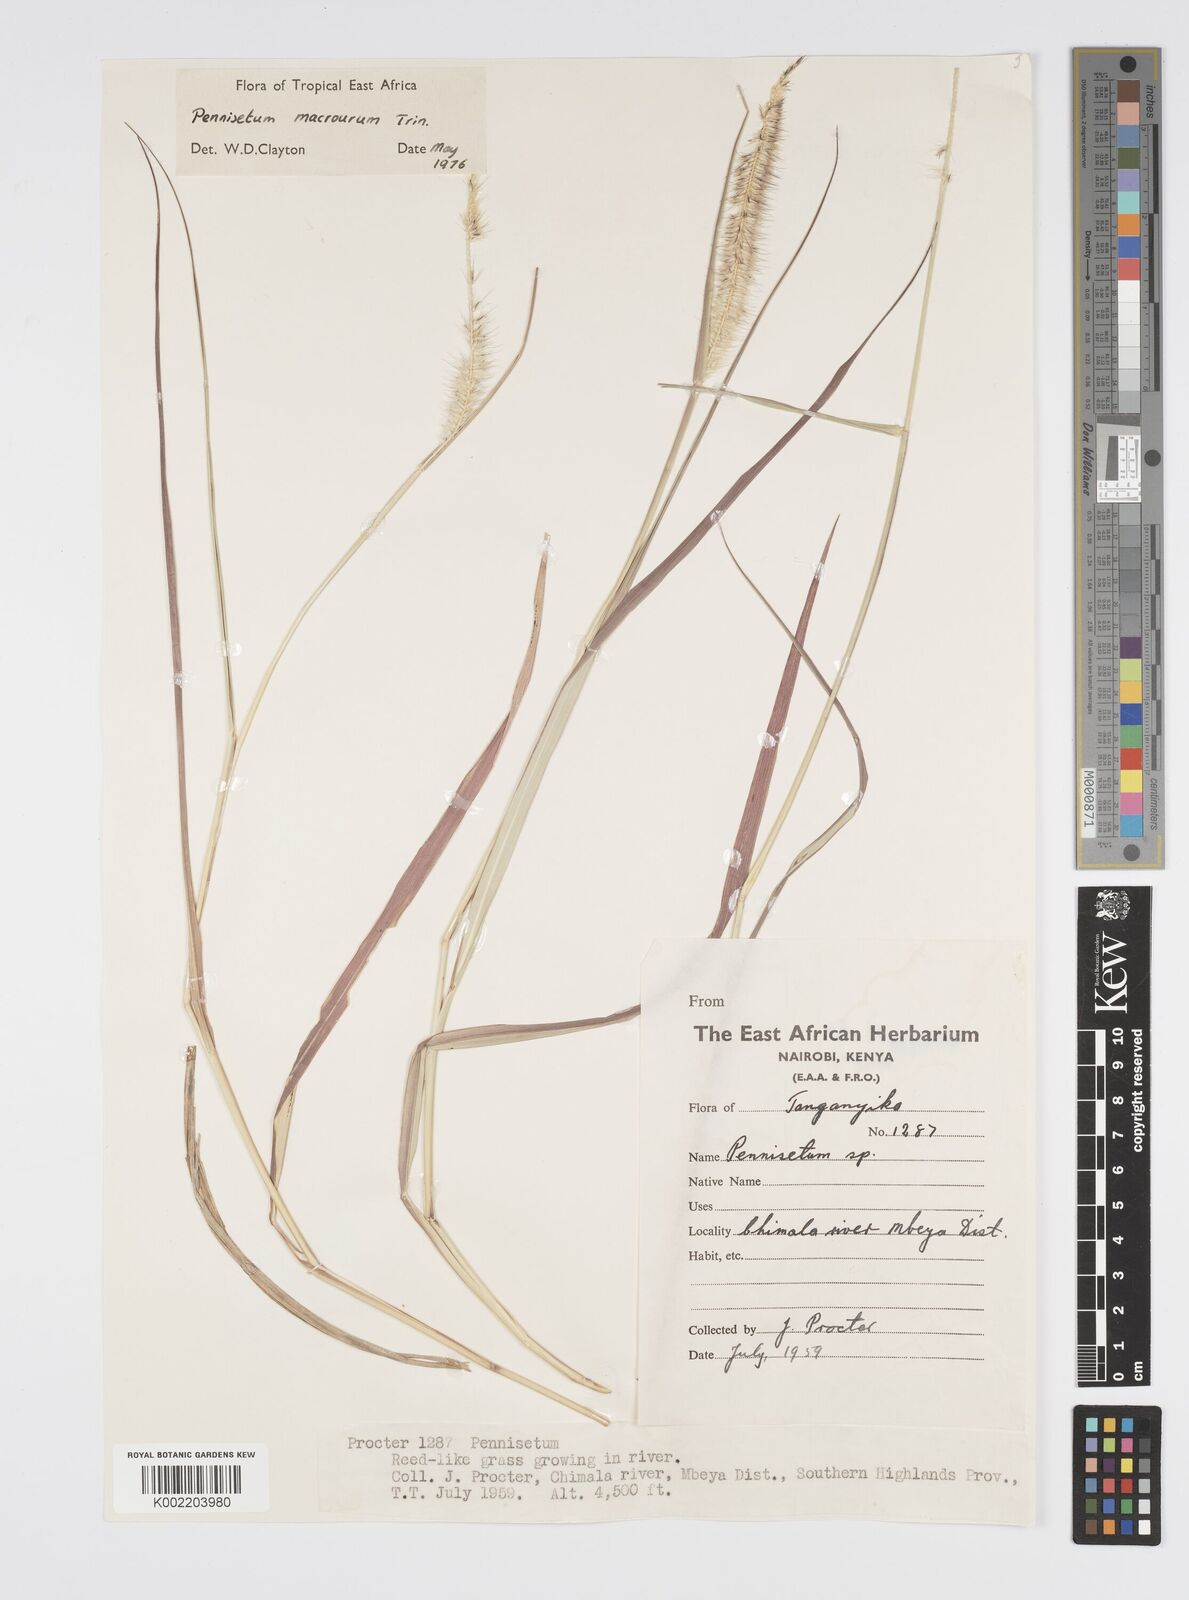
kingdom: Plantae
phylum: Tracheophyta
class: Liliopsida
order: Poales
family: Poaceae
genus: Cenchrus
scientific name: Cenchrus caudatus
